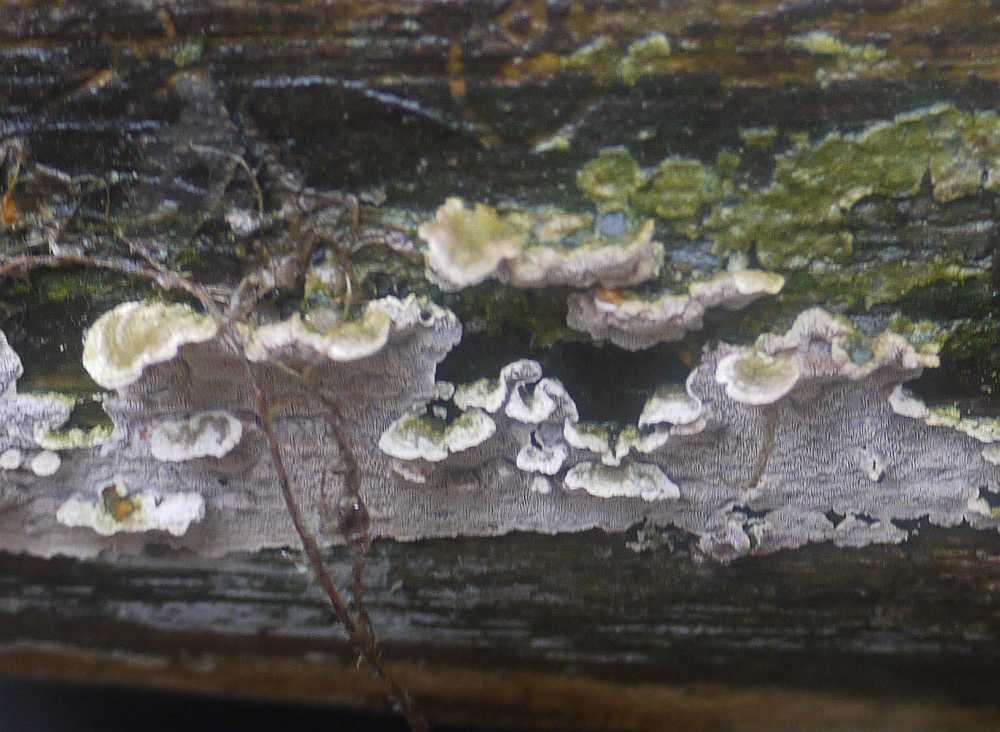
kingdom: Fungi
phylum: Basidiomycota
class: Agaricomycetes
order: Polyporales
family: Incrustoporiaceae
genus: Skeletocutis
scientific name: Skeletocutis carneogrisea
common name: rødgrå krystalporesvamp
